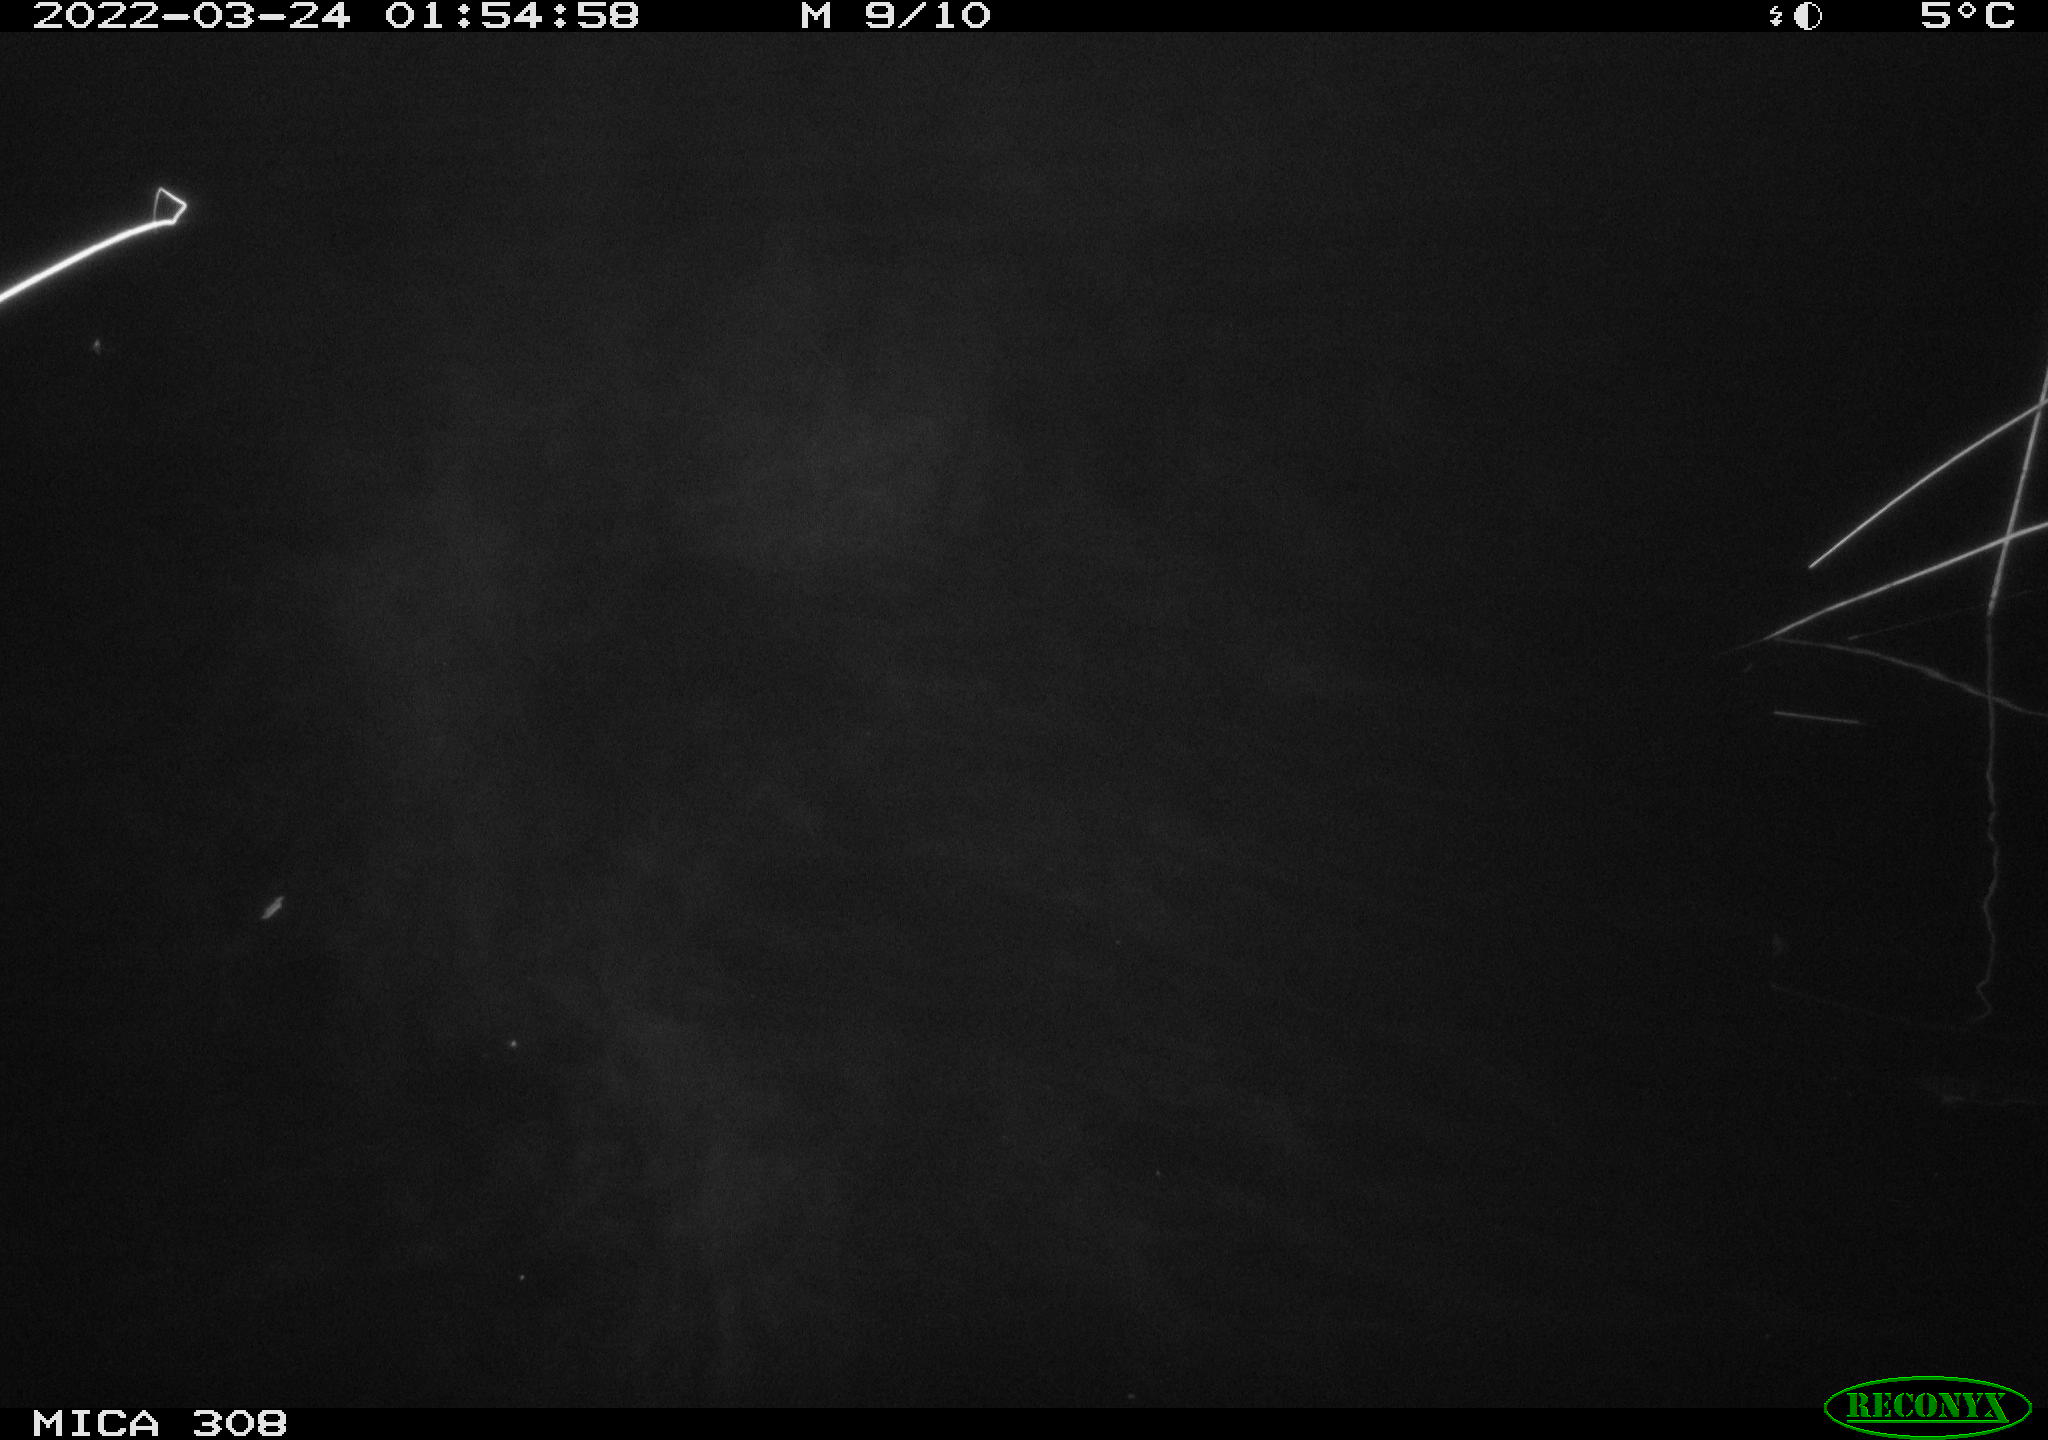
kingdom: Animalia
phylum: Chordata
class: Aves
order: Anseriformes
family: Anatidae
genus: Anas
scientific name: Anas platyrhynchos
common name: Mallard
